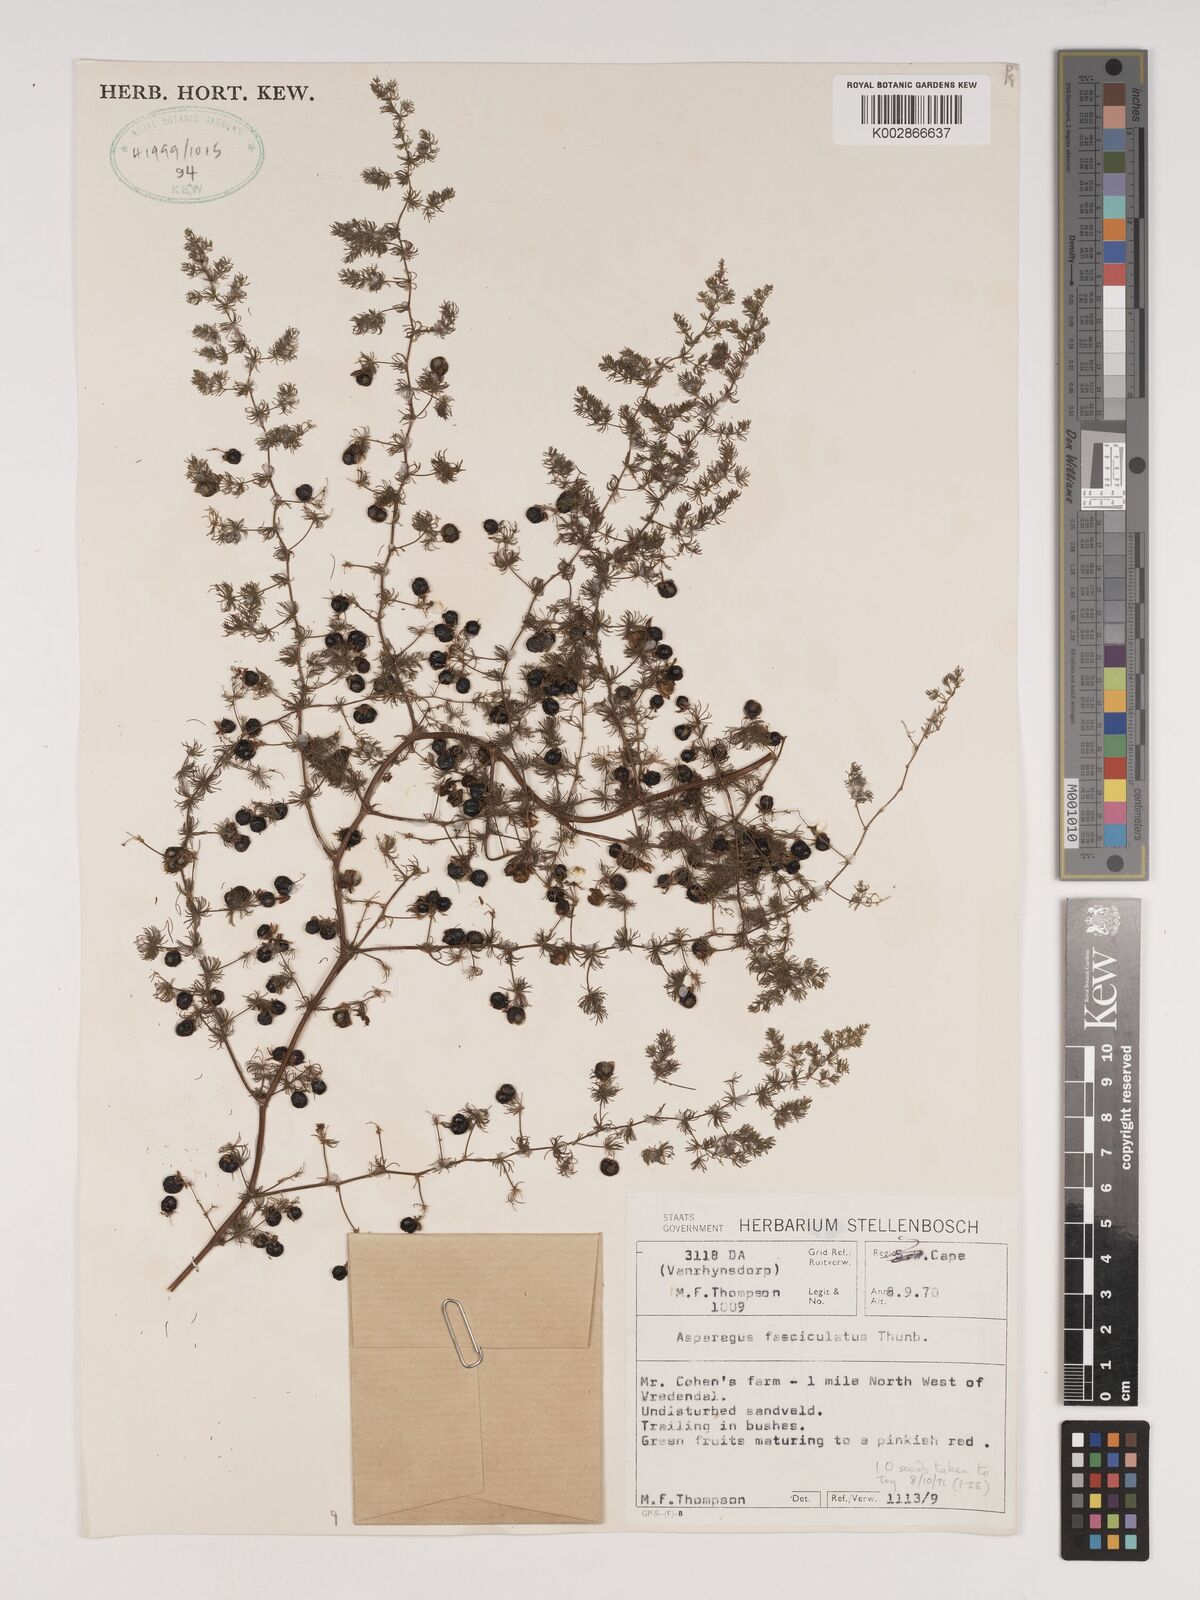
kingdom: Plantae
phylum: Tracheophyta
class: Liliopsida
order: Asparagales
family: Asparagaceae
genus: Asparagus
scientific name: Asparagus fasciculatus
